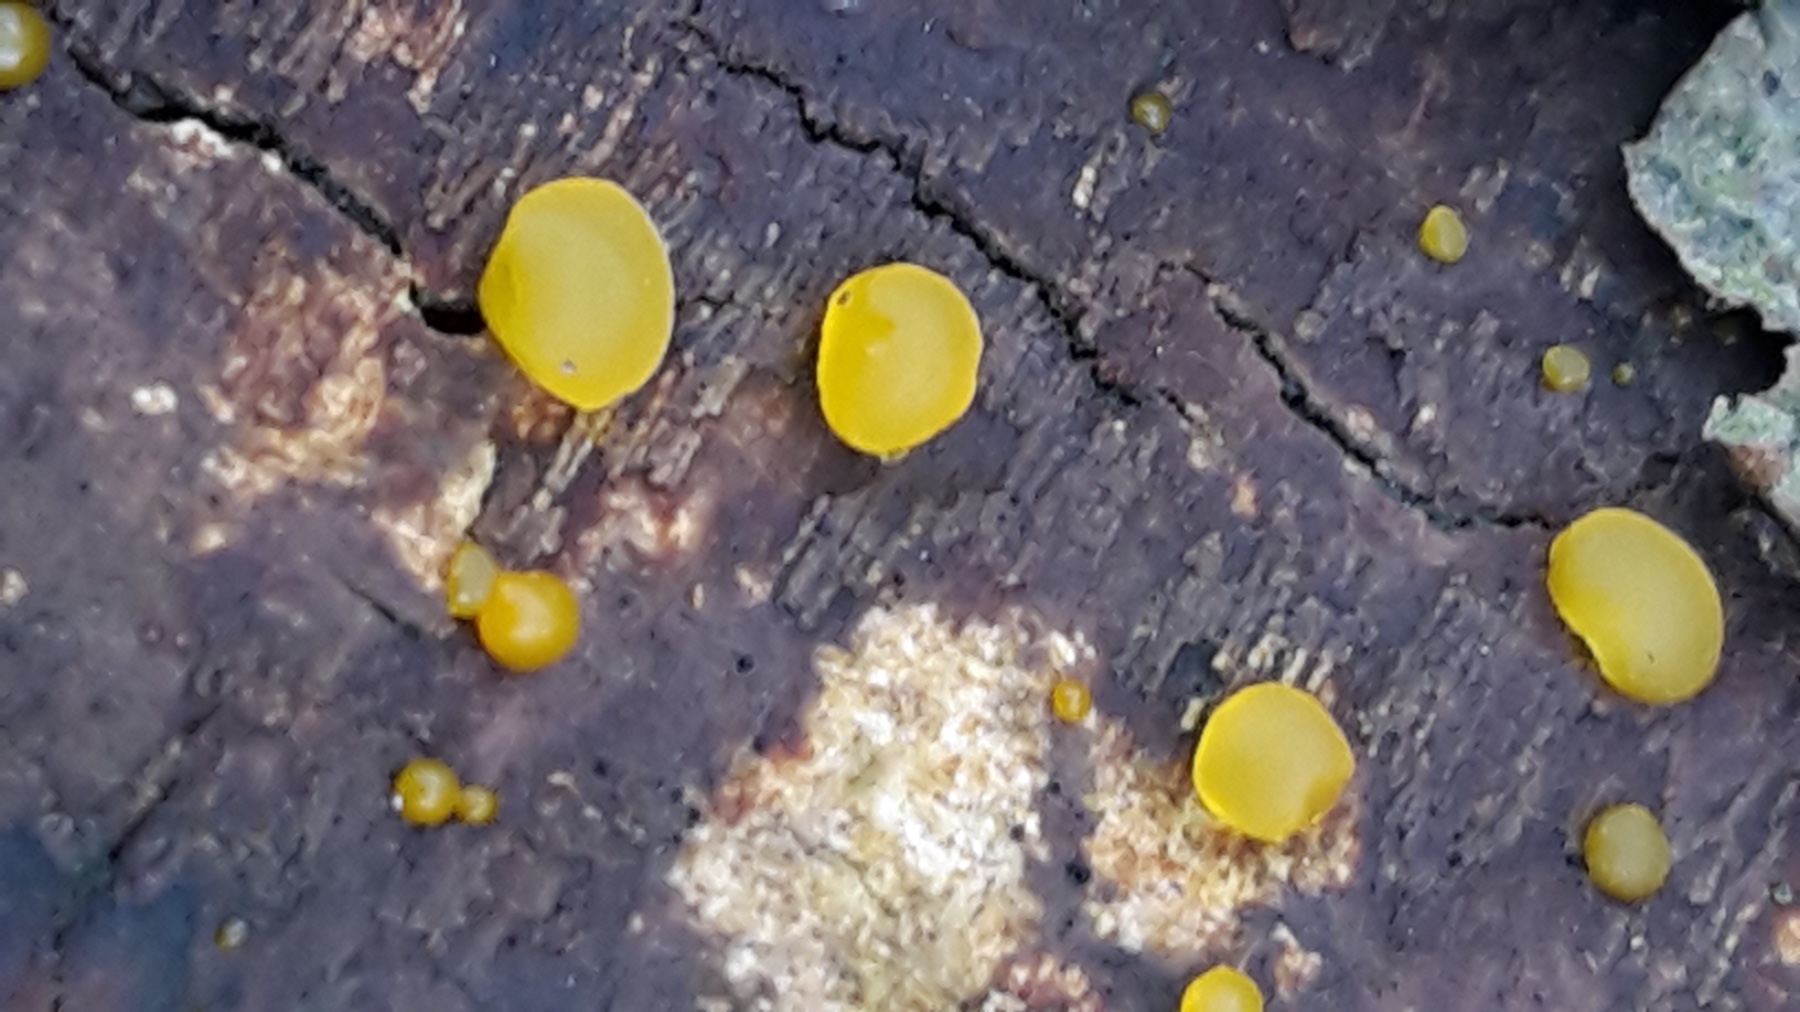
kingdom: Fungi
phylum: Basidiomycota
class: Dacrymycetes
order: Dacrymycetales
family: Dacrymycetaceae
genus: Dacrymyces
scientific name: Dacrymyces
